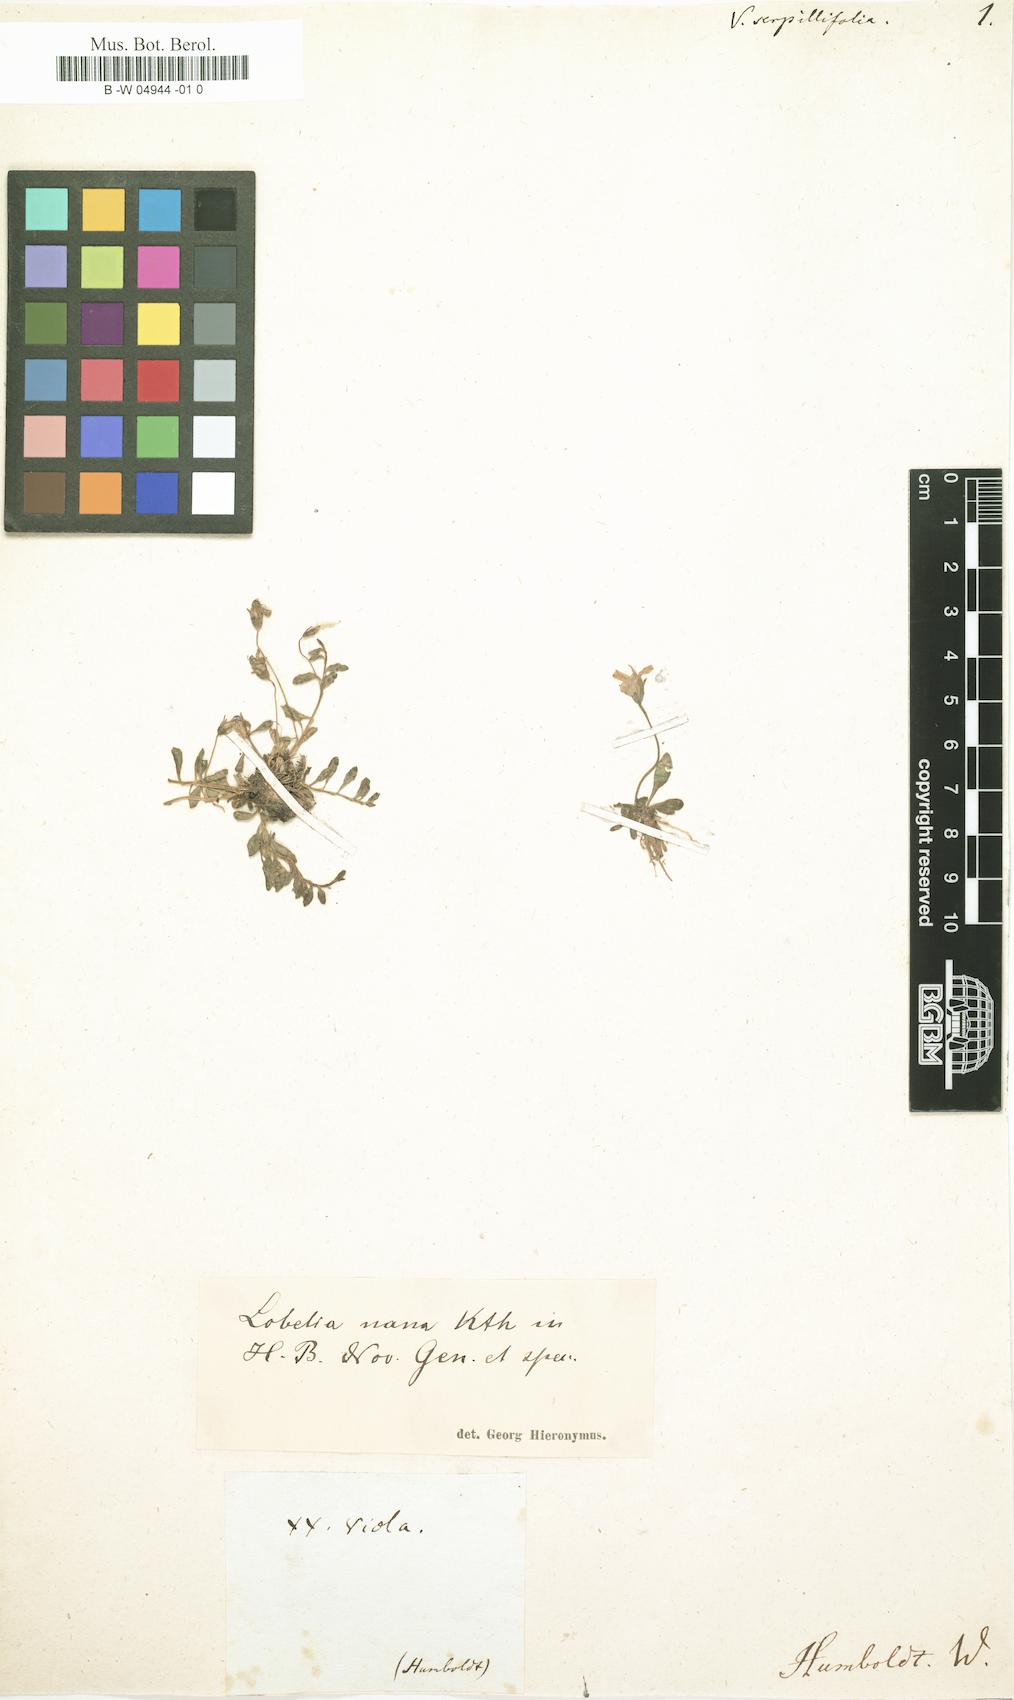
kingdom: Plantae
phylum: Tracheophyta
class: Magnoliopsida
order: Asterales
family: Campanulaceae
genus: Lobelia
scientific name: Lobelia nana
